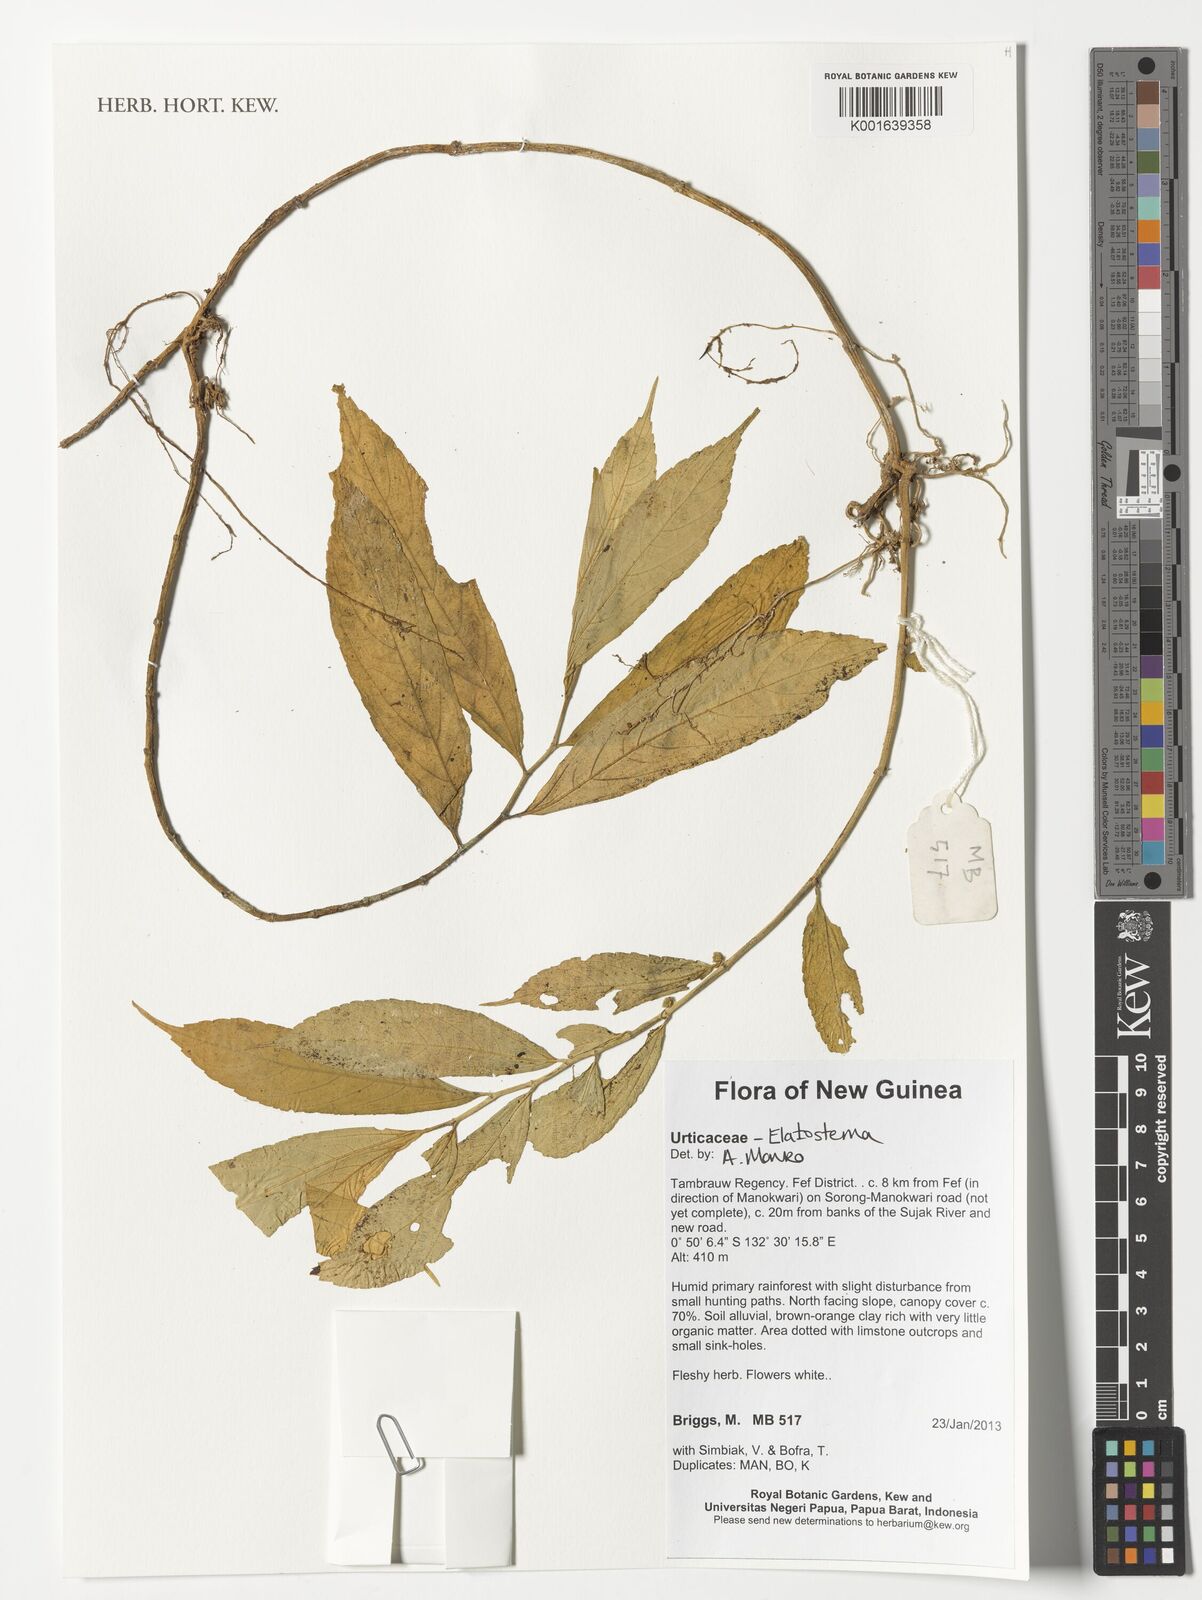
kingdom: Plantae
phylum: Tracheophyta
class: Magnoliopsida
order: Rosales
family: Urticaceae
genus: Elatostema
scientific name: Elatostema
